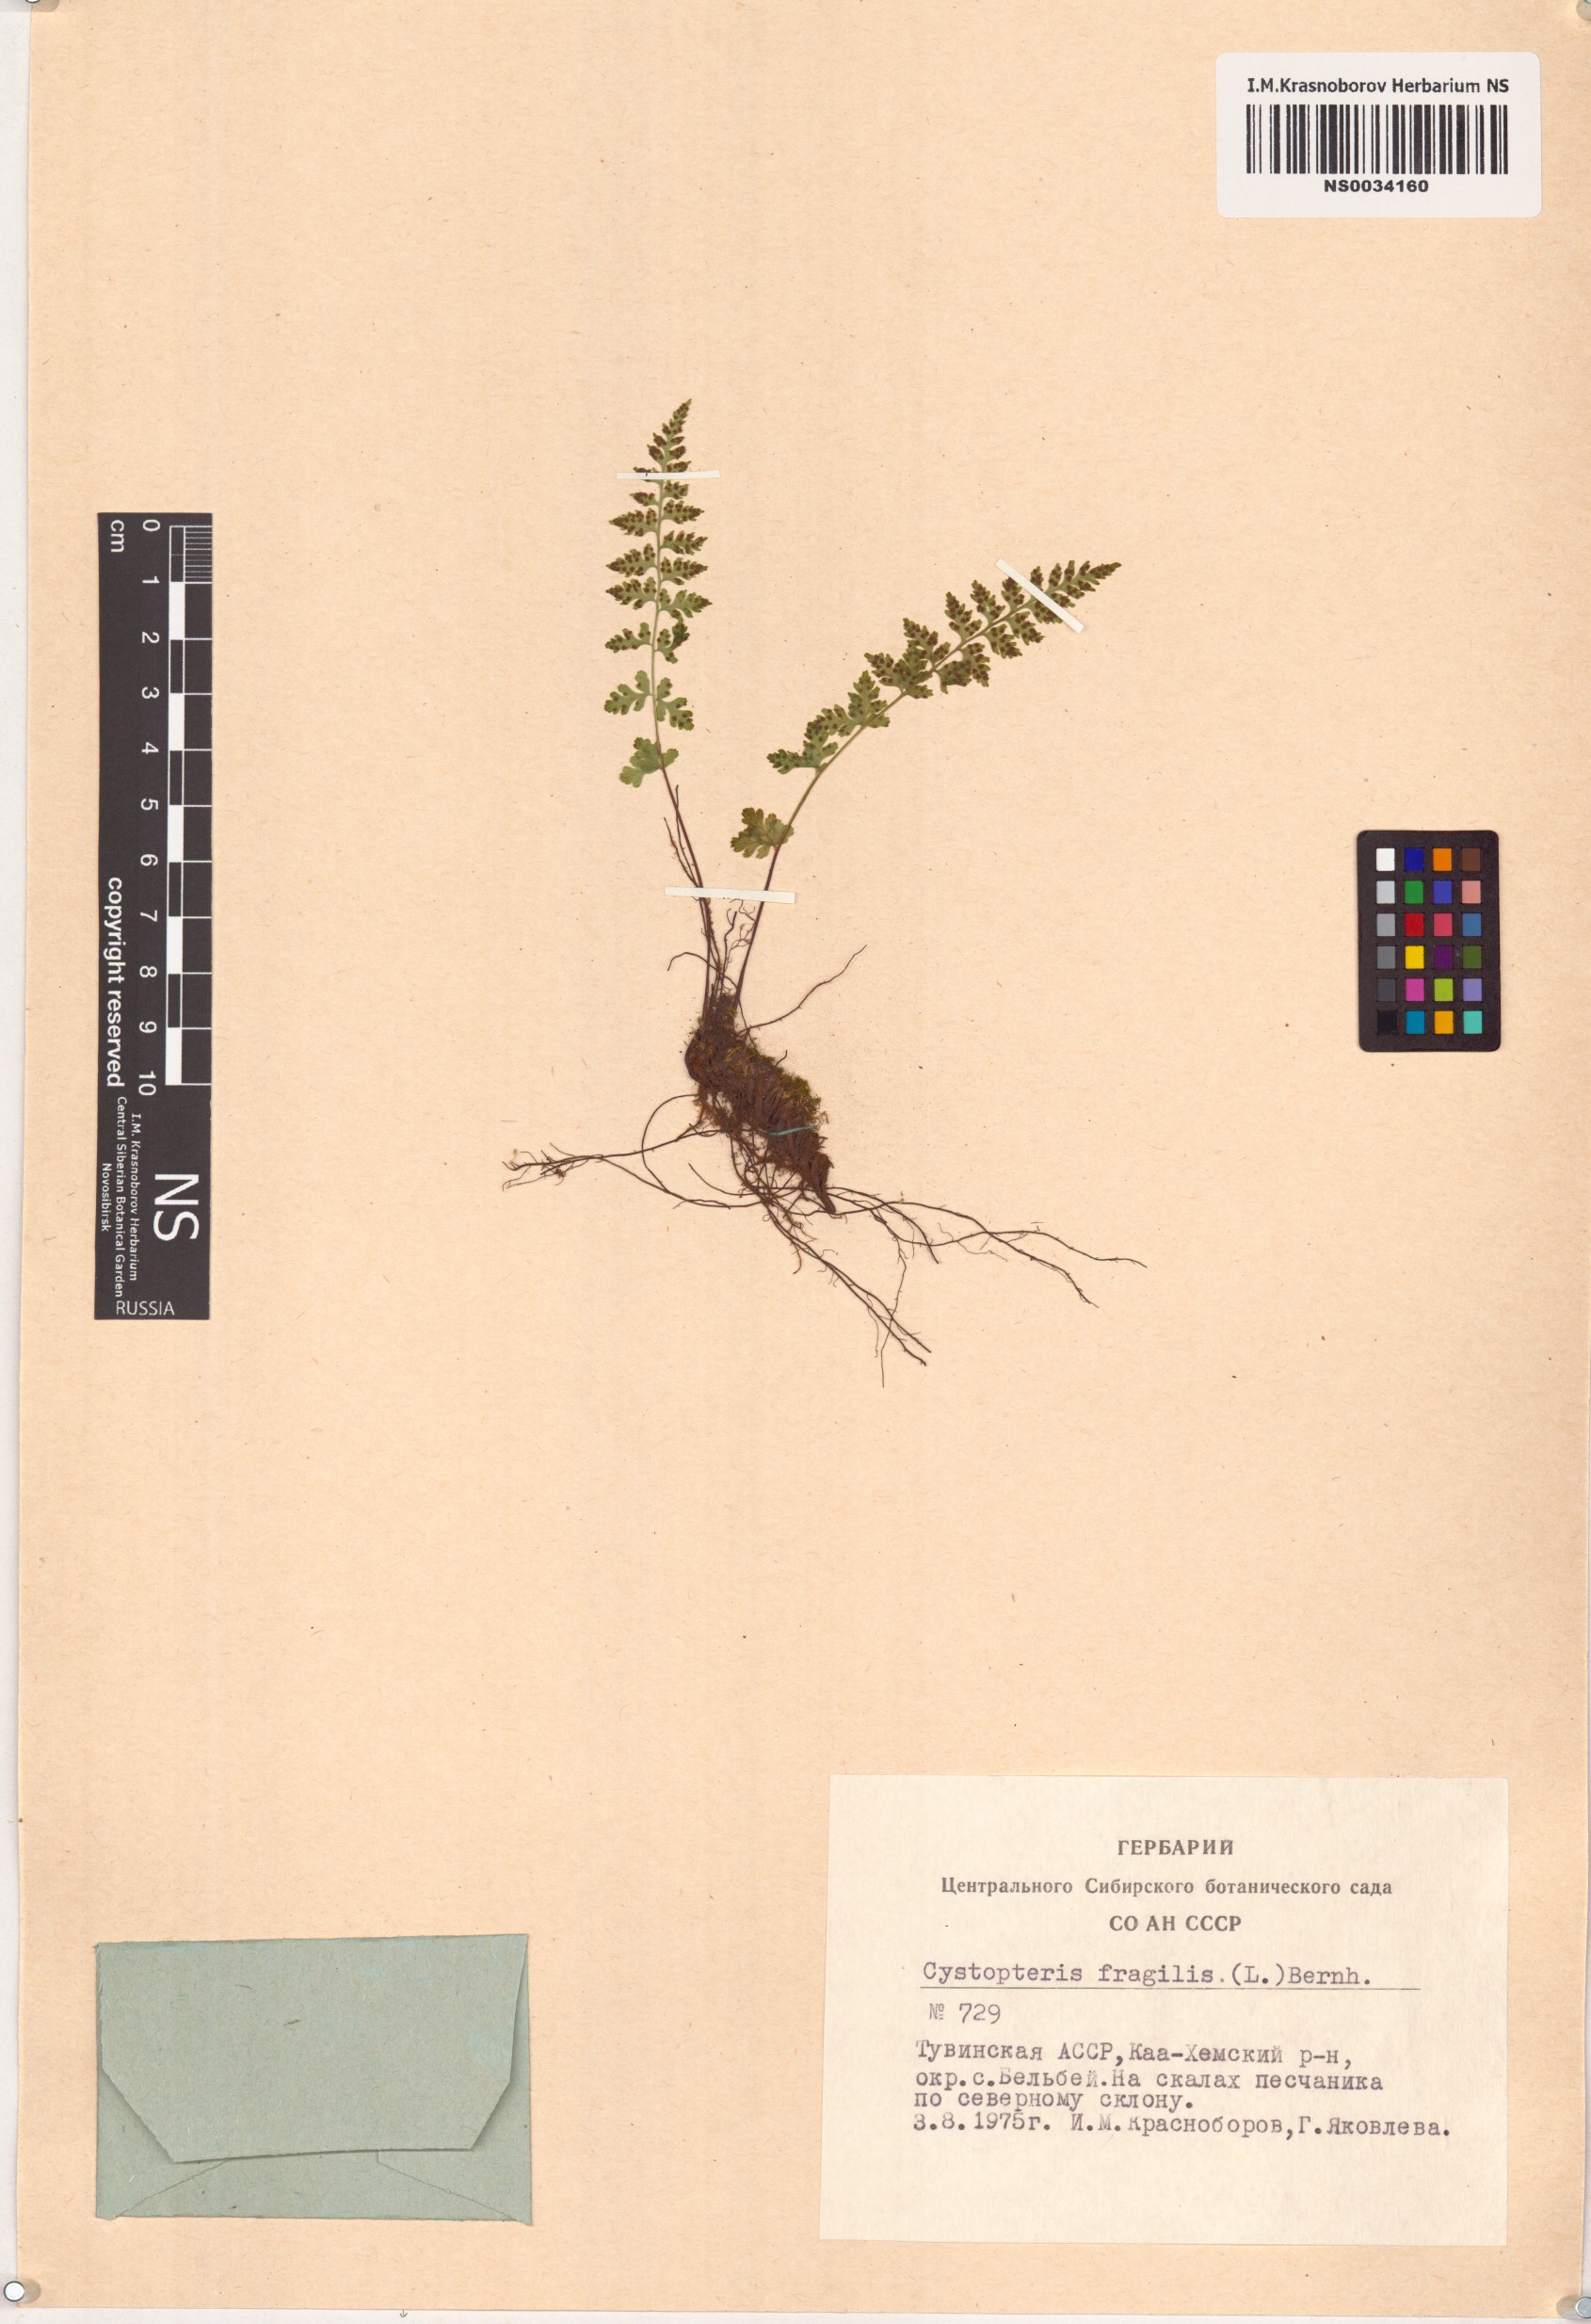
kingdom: Plantae
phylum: Tracheophyta
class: Polypodiopsida
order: Polypodiales
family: Cystopteridaceae
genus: Cystopteris
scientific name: Cystopteris fragilis
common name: Brittle bladder fern
